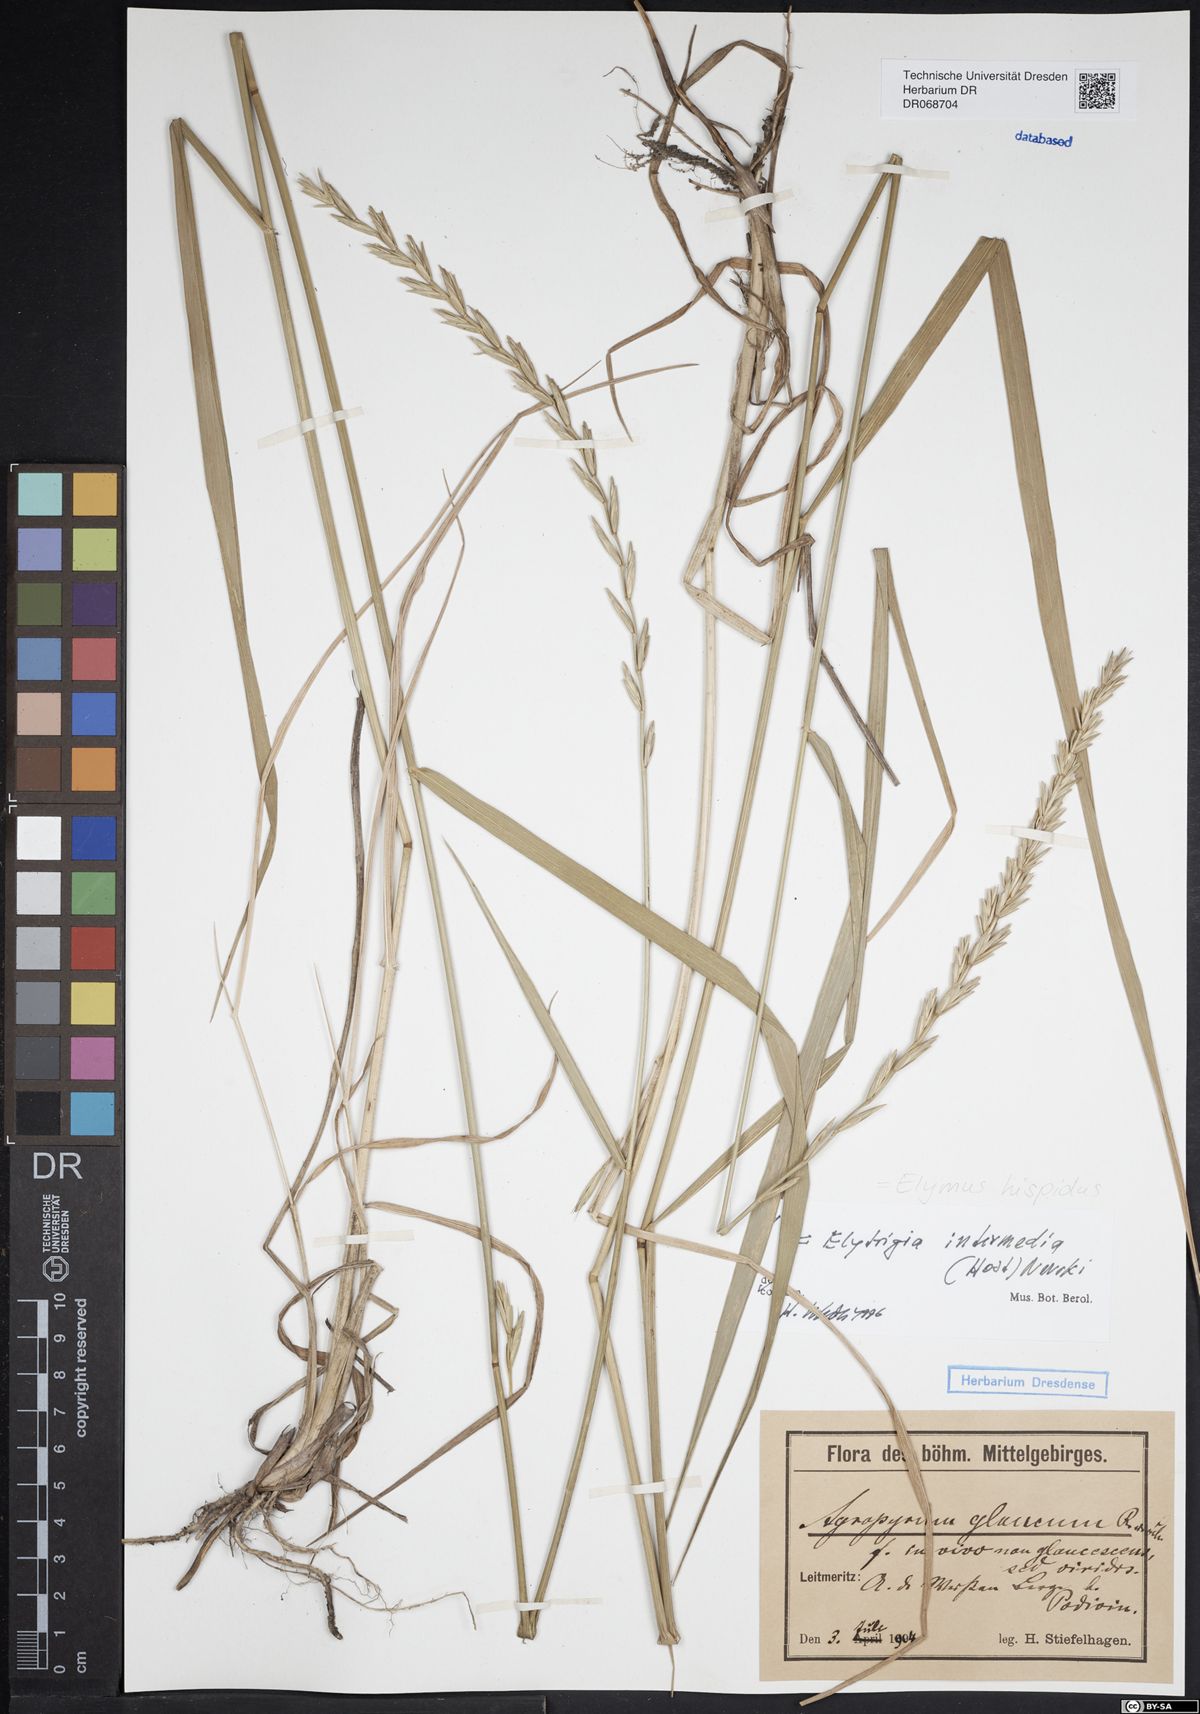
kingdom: Plantae
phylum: Tracheophyta
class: Liliopsida
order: Poales
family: Poaceae
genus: Thinopyrum
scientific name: Thinopyrum intermedium
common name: Intermediate wheatgrass
